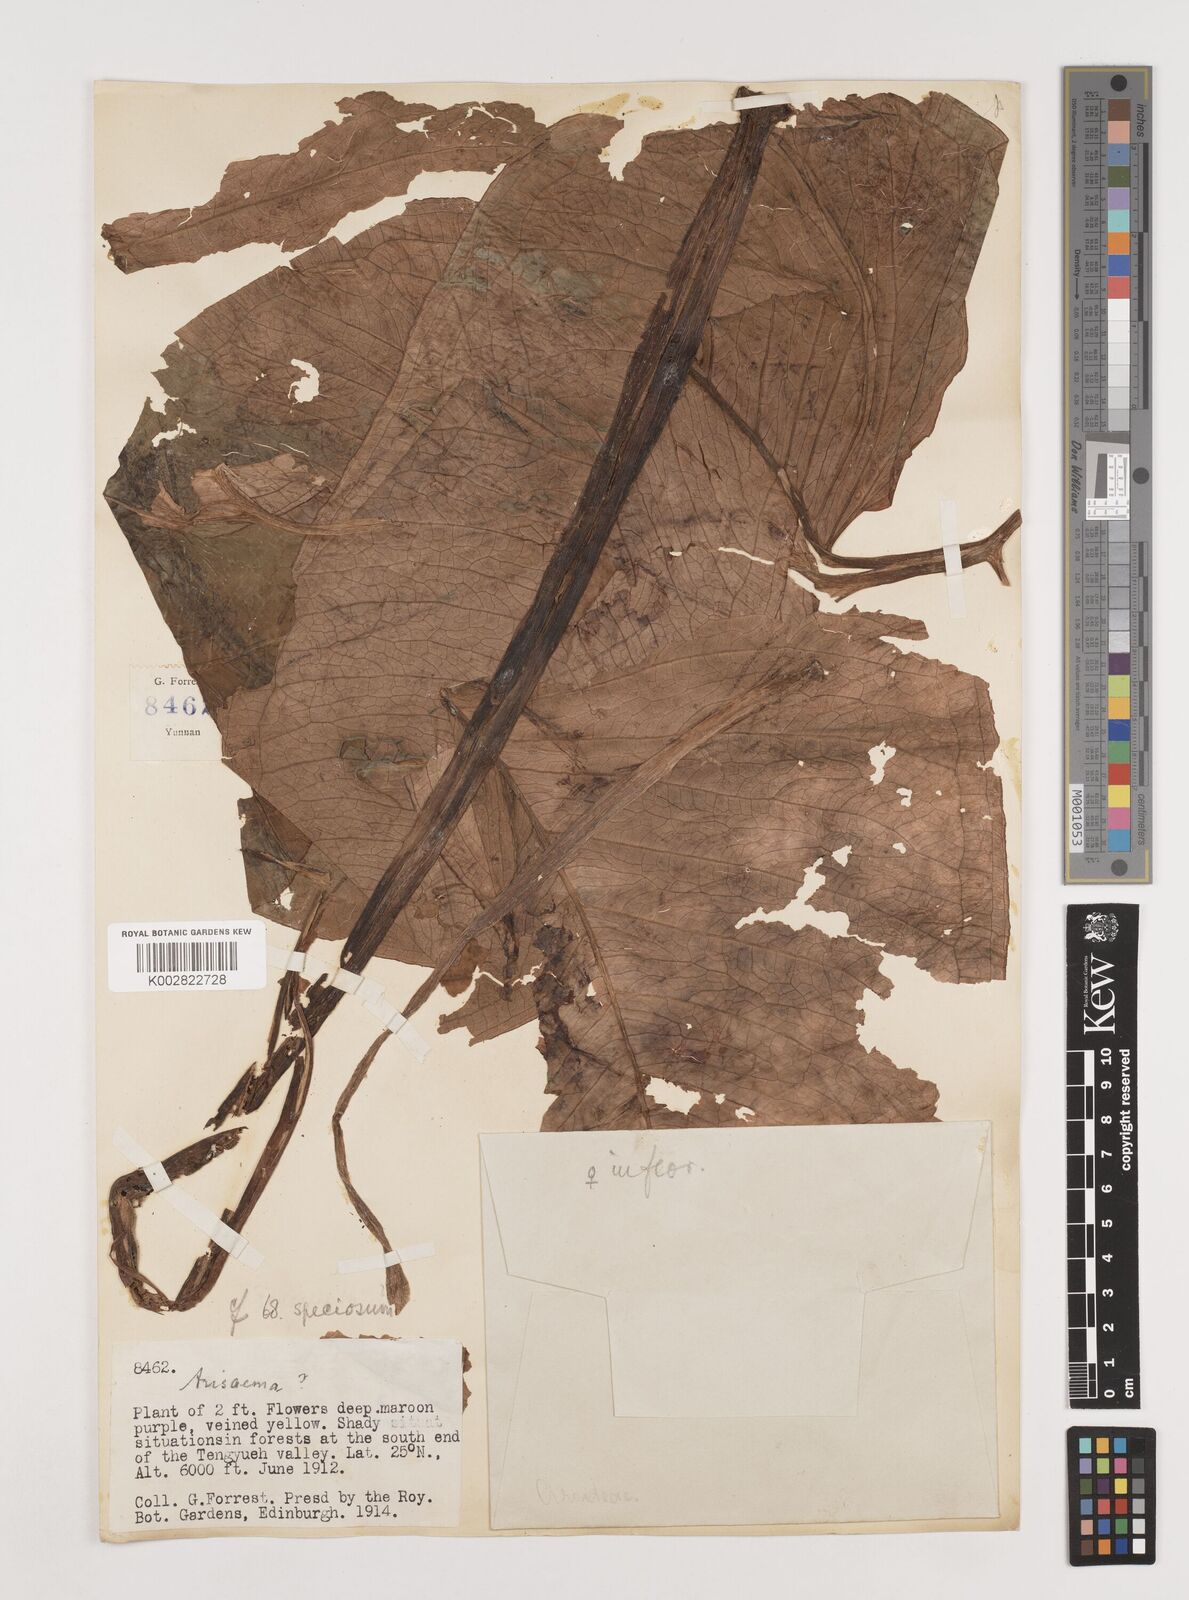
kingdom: Plantae
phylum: Tracheophyta
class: Liliopsida
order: Alismatales
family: Araceae
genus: Arisaema
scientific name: Arisaema
